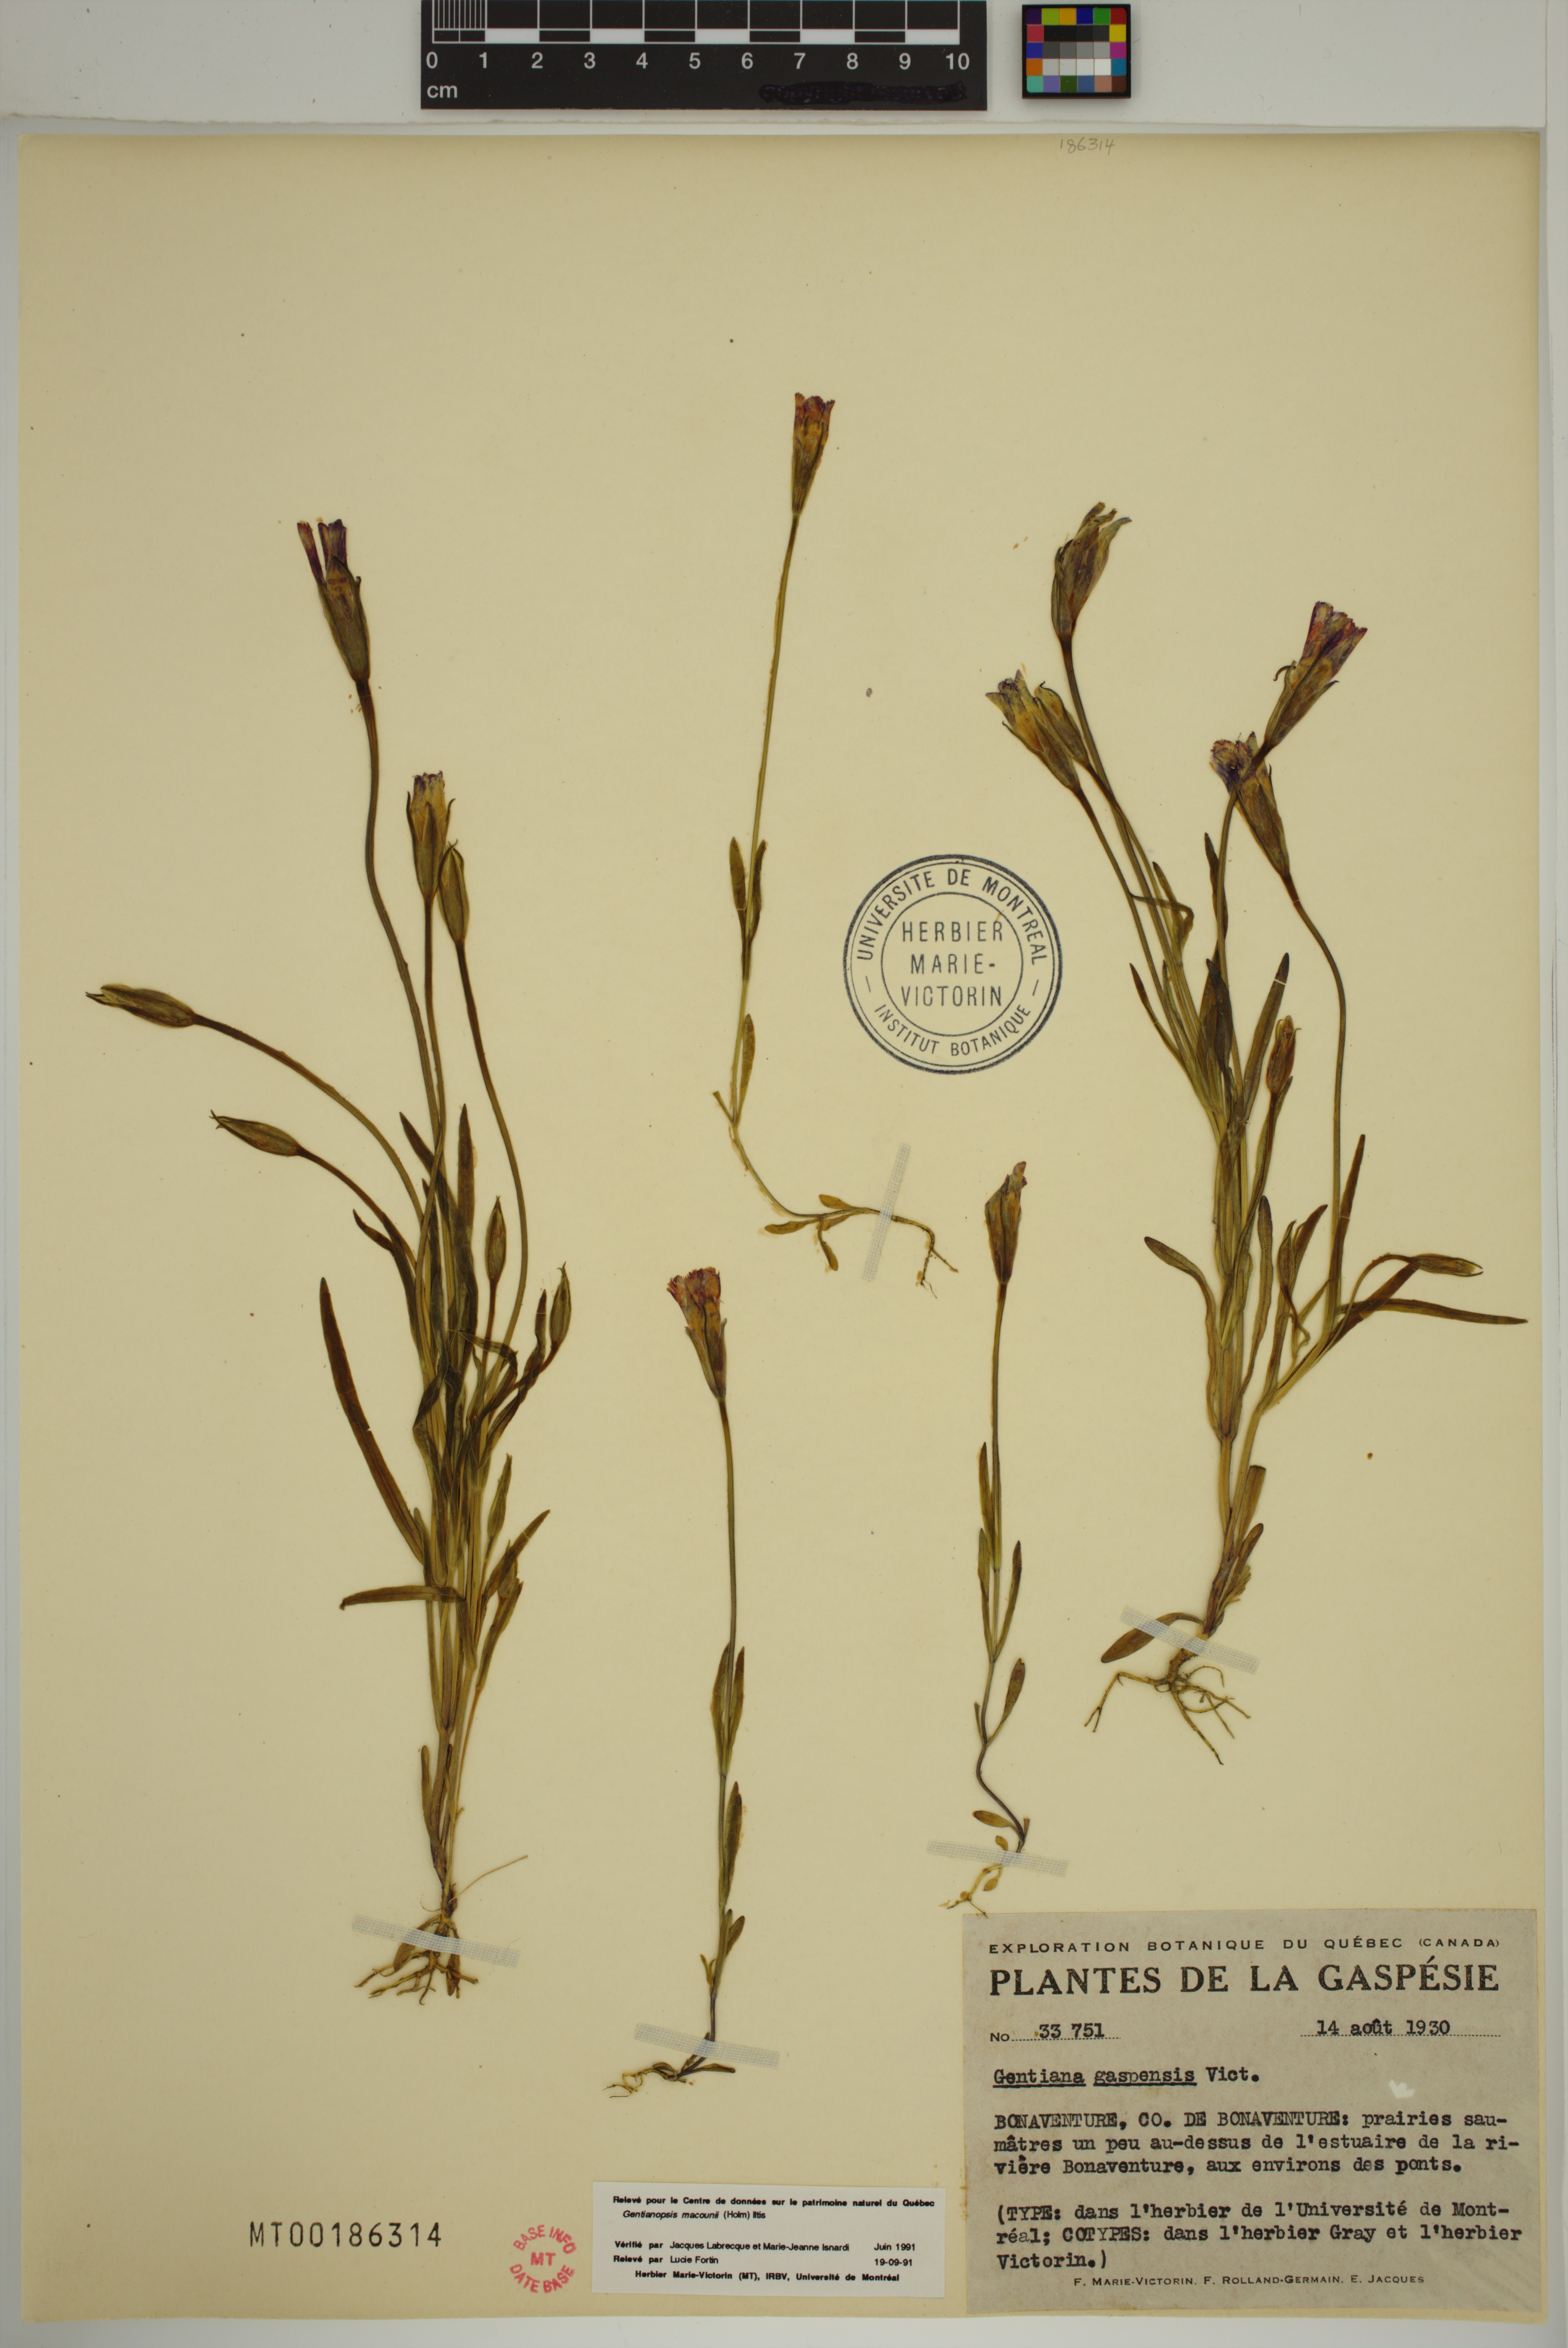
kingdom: Plantae
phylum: Tracheophyta
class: Magnoliopsida
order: Gentianales
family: Gentianaceae
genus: Gentianopsis
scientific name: Gentianopsis macounii
